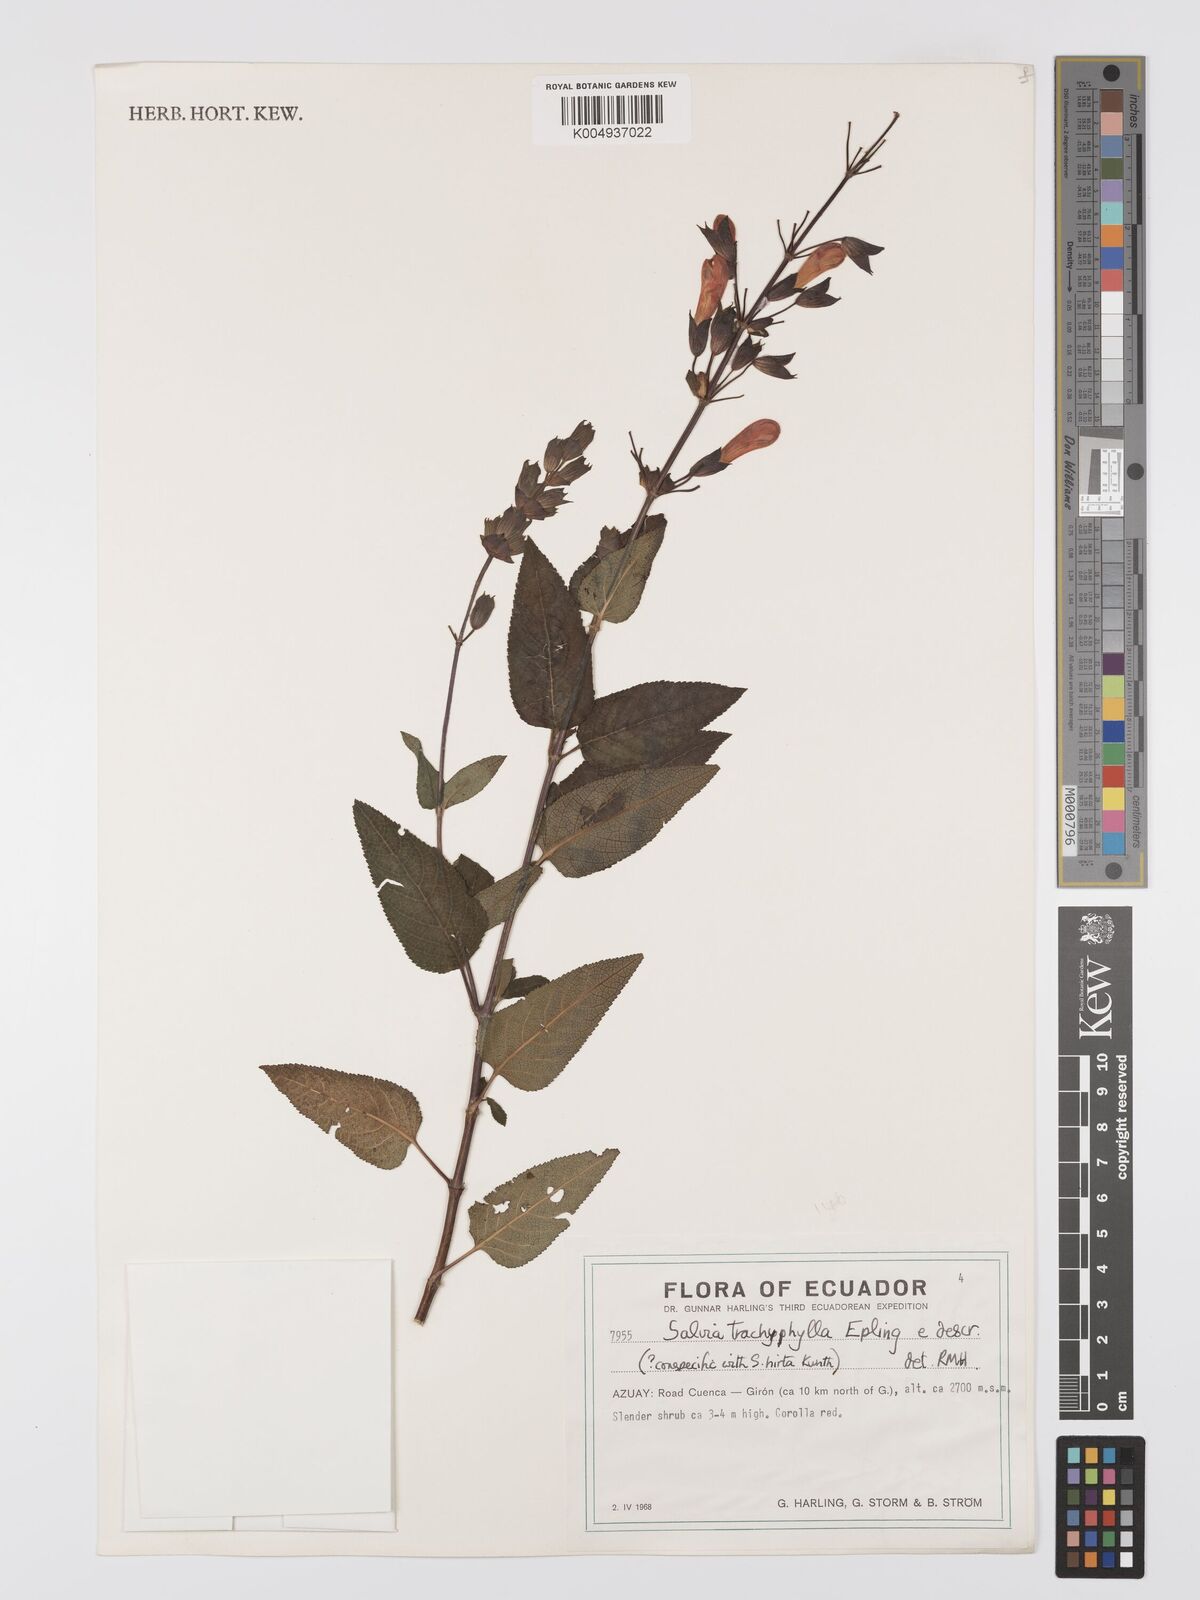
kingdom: Plantae
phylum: Tracheophyta
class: Magnoliopsida
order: Lamiales
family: Lamiaceae
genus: Salvia
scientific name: Salvia trachyphylla
